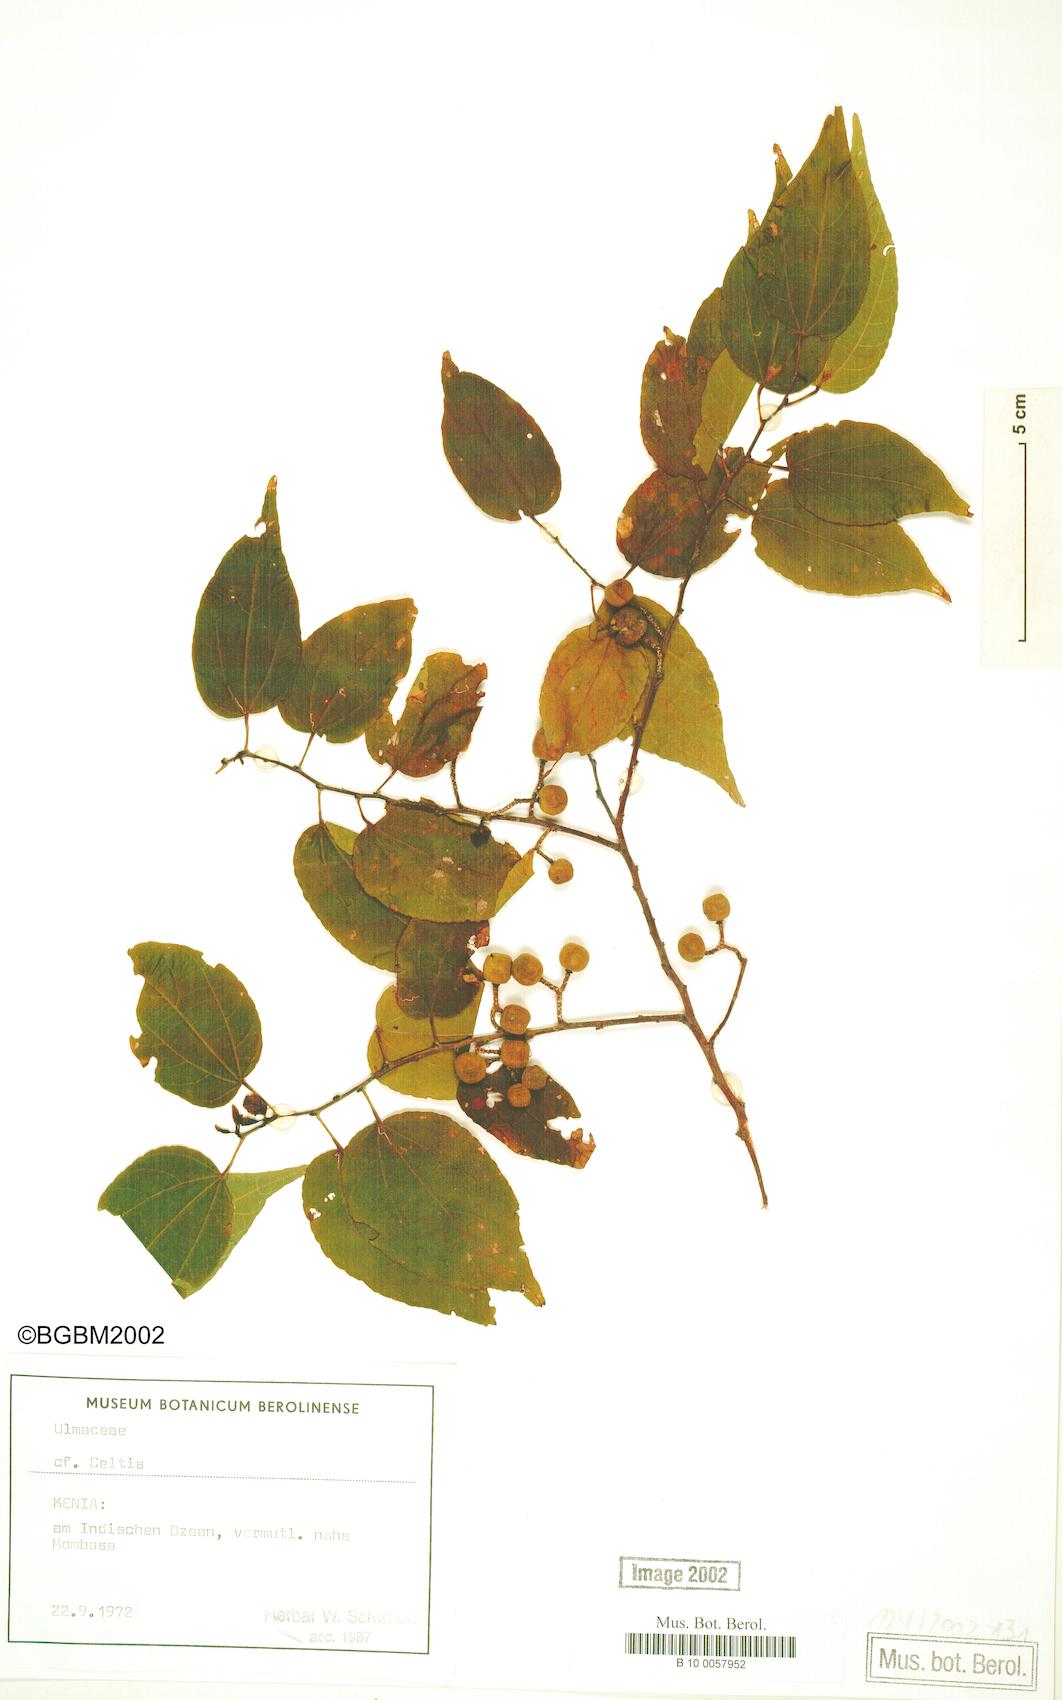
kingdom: Plantae
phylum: Tracheophyta
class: Magnoliopsida
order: Rosales
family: Cannabaceae
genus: Celtis
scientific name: Celtis
